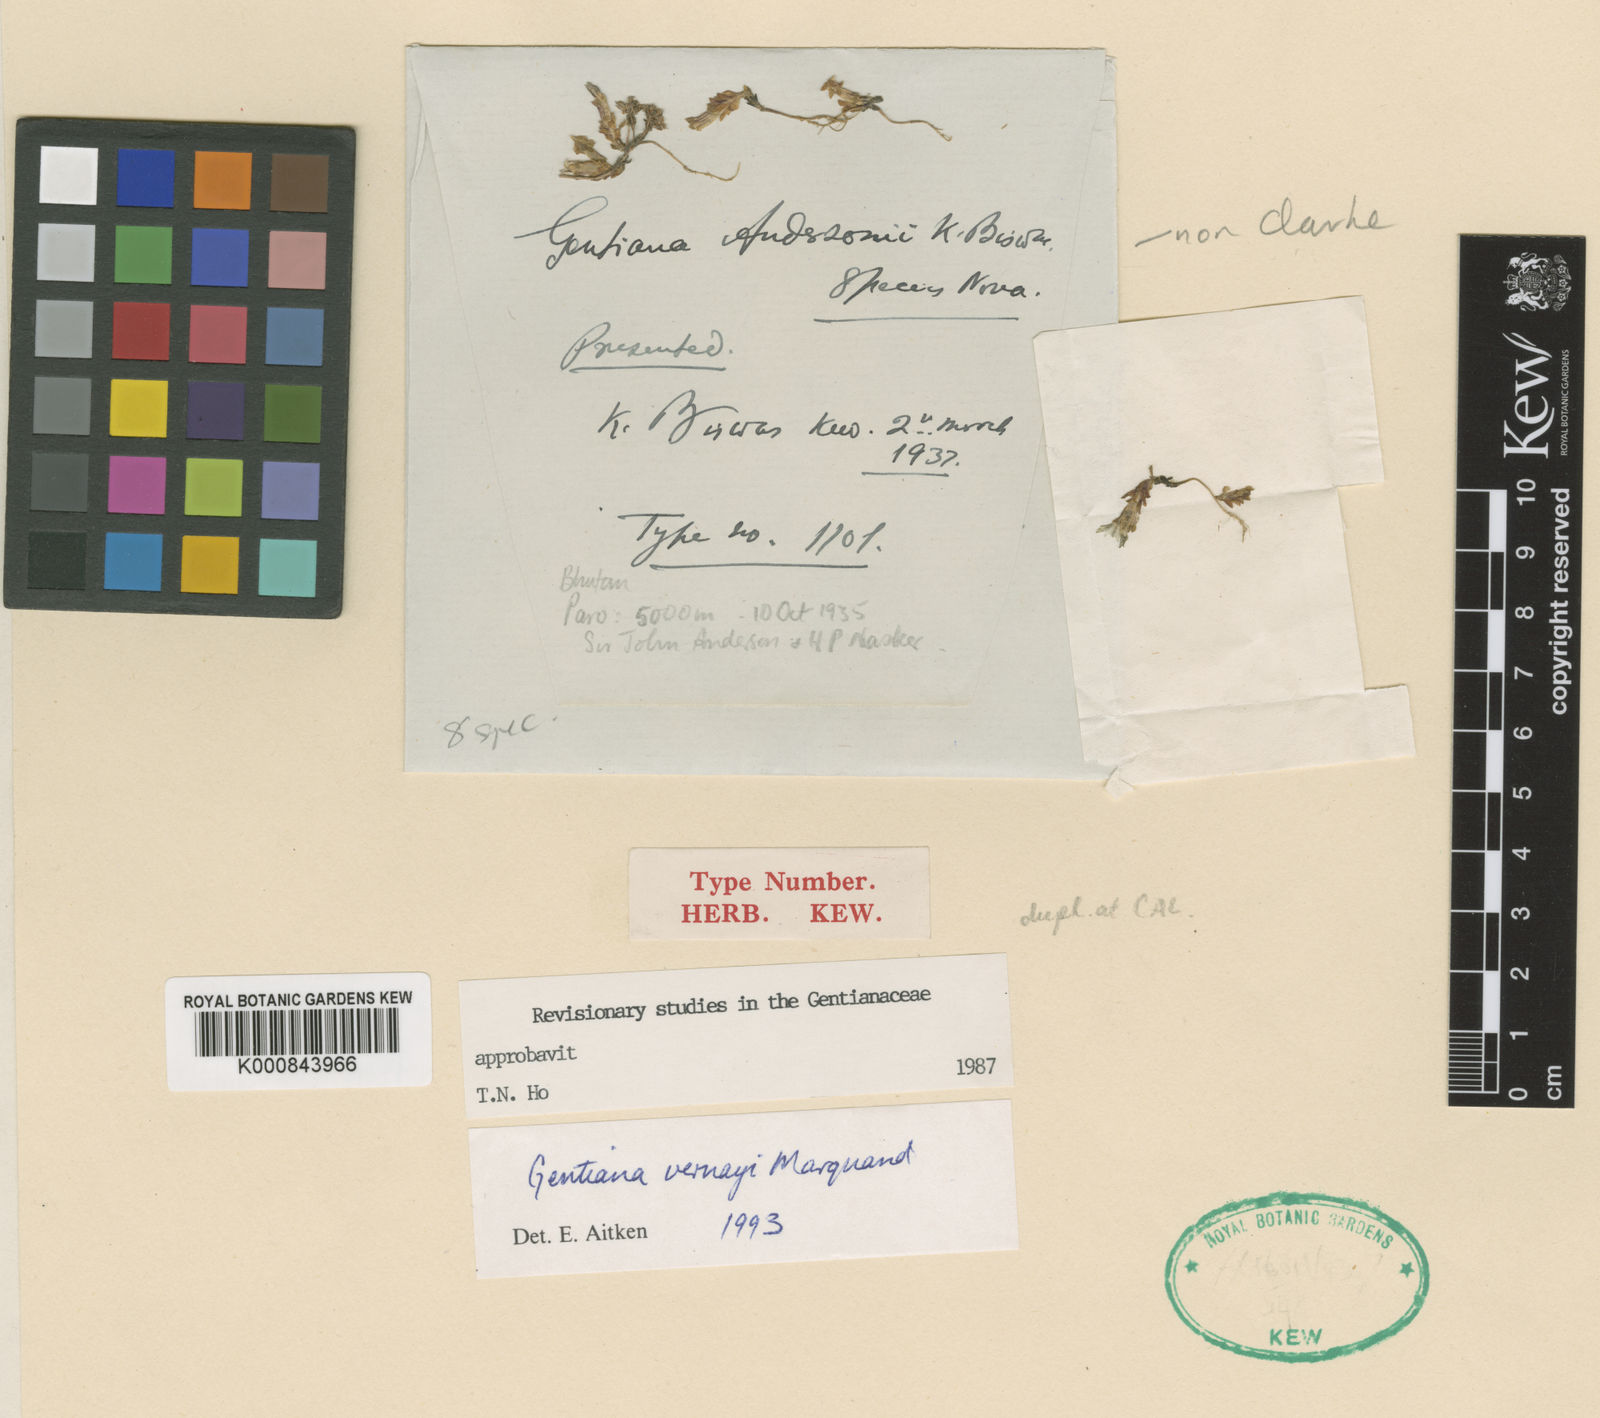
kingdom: Plantae
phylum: Tracheophyta
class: Magnoliopsida
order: Gentianales
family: Gentianaceae
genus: Gentiana
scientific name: Gentiana vernayi
